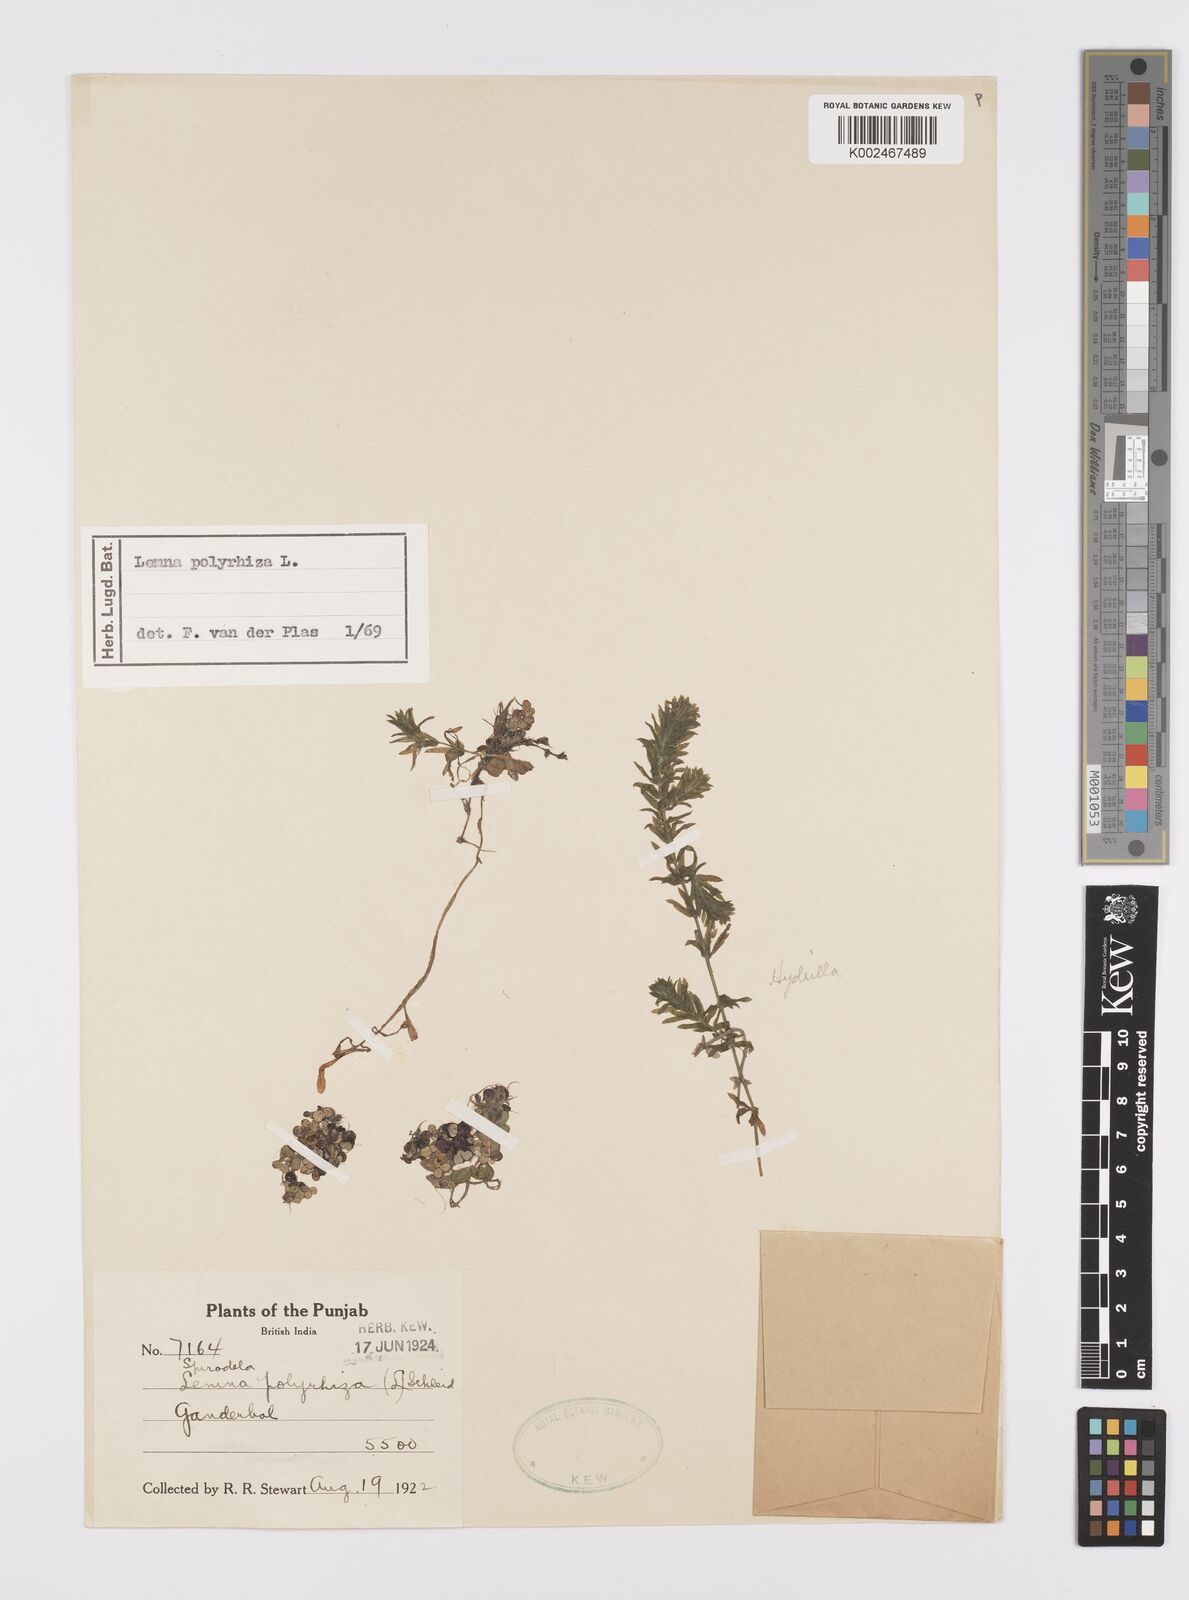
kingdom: Plantae
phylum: Tracheophyta
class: Liliopsida
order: Alismatales
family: Araceae
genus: Spirodela
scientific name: Spirodela polyrhiza
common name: Great duckweed
